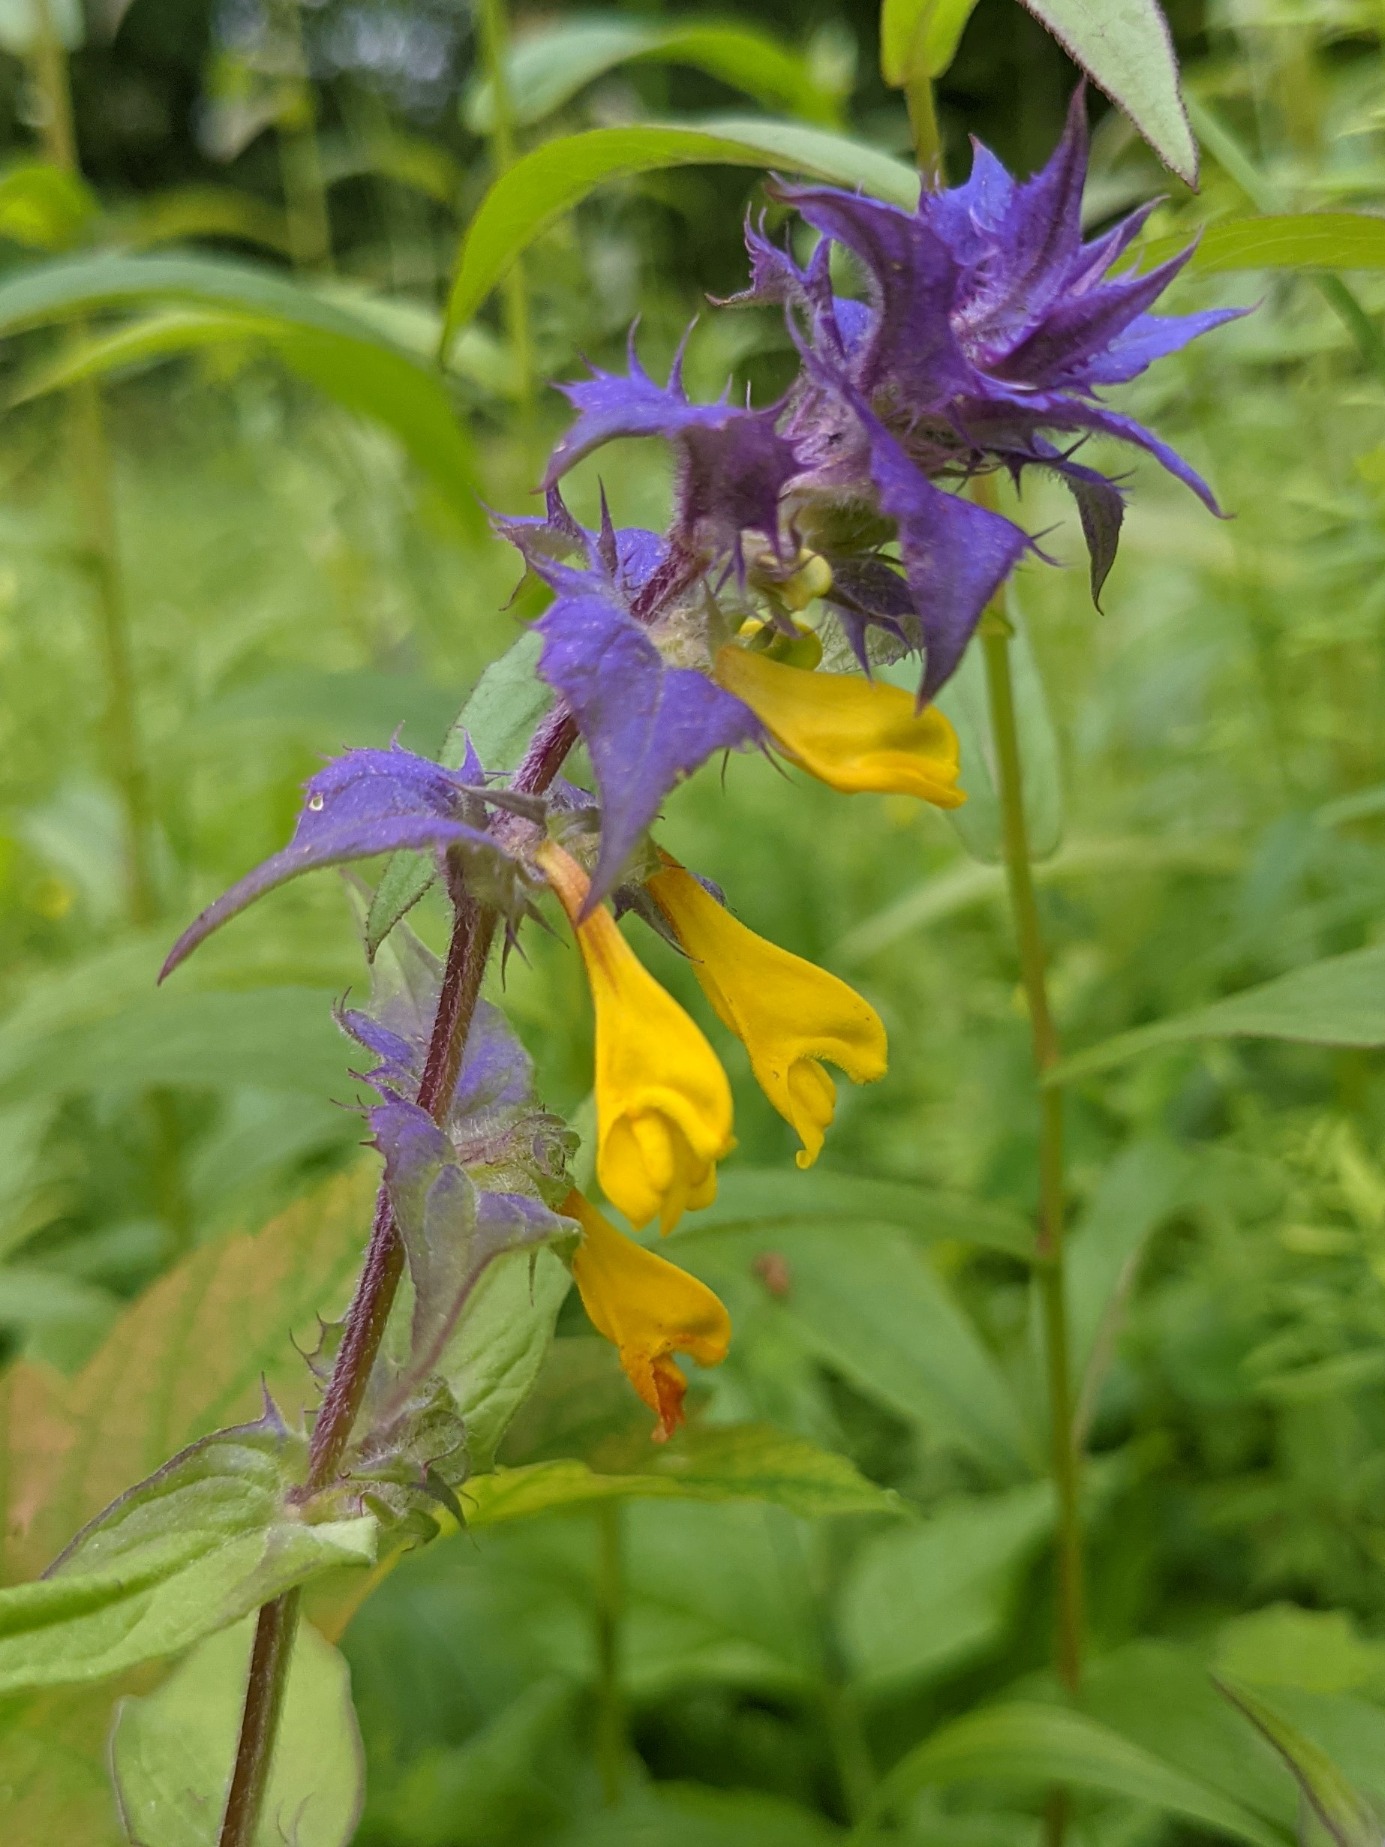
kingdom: Plantae
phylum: Tracheophyta
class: Magnoliopsida
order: Lamiales
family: Orobanchaceae
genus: Melampyrum
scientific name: Melampyrum nemorosum
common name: Blåtoppet kohvede
